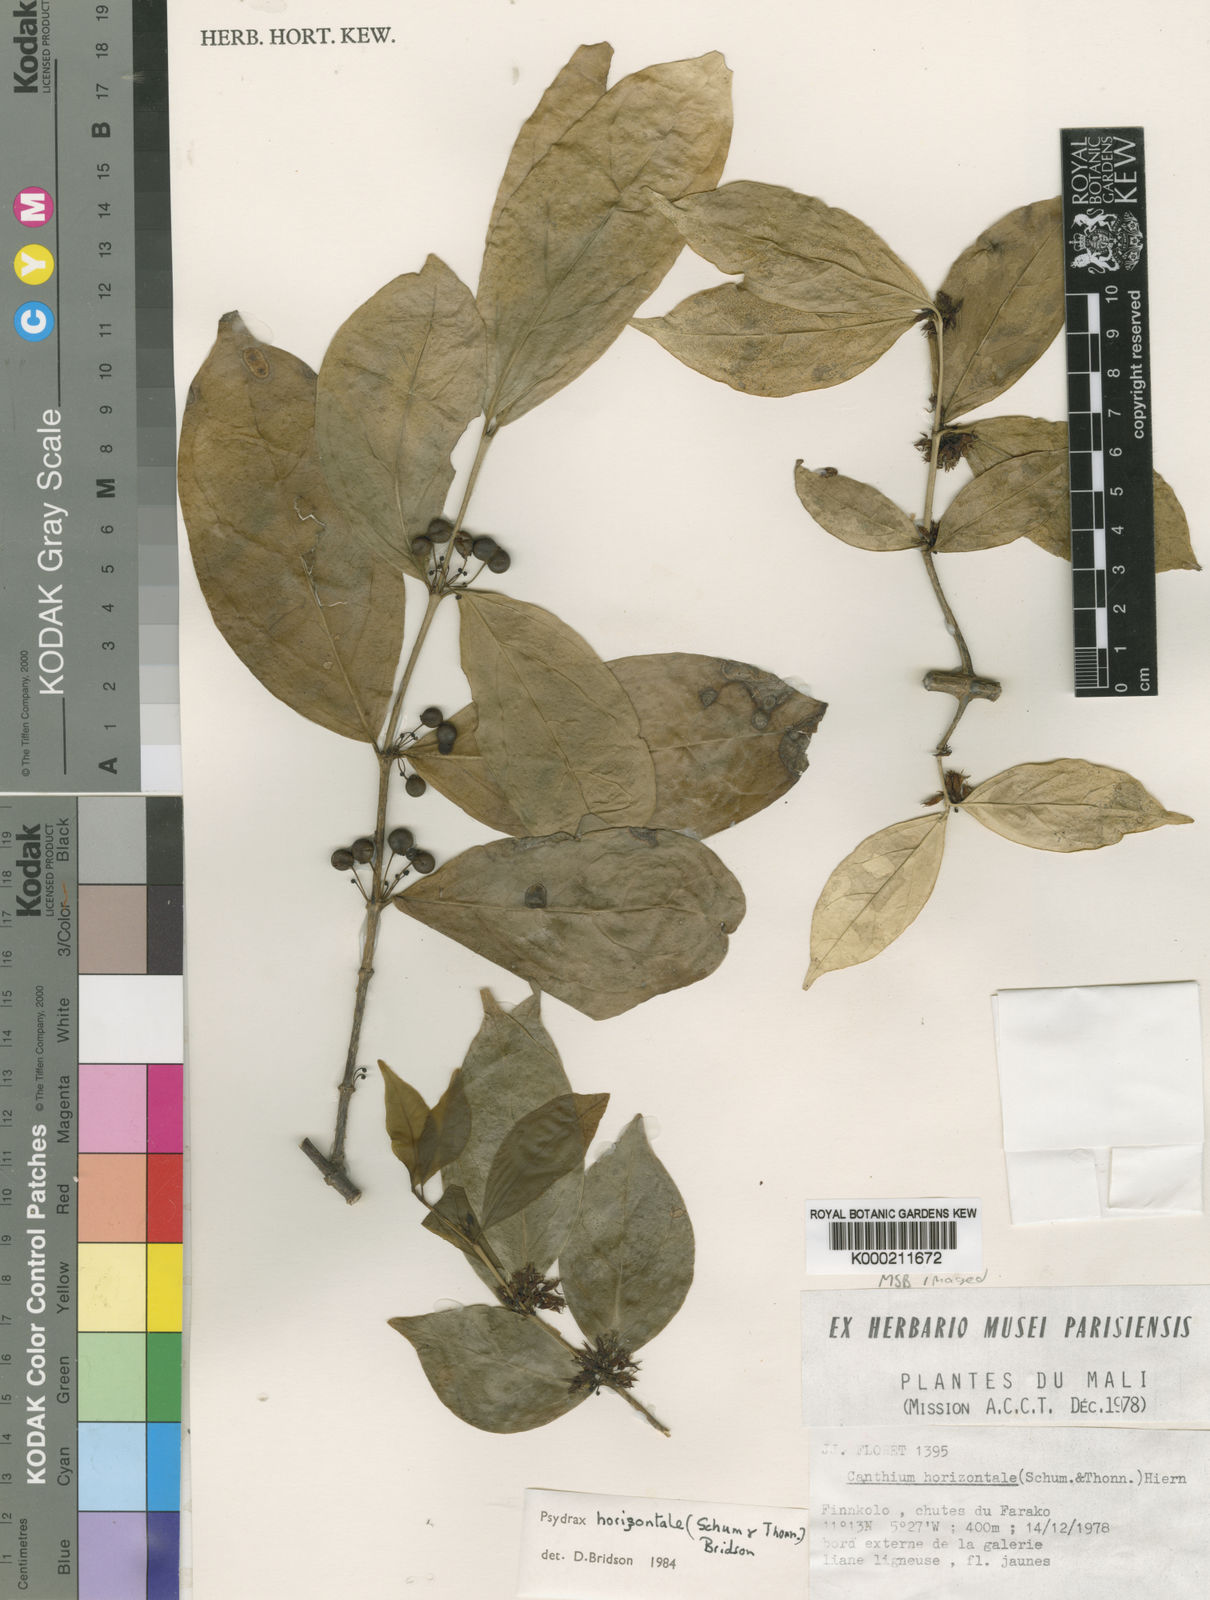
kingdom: Plantae
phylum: Tracheophyta
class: Magnoliopsida
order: Gentianales
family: Rubiaceae
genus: Psydrax
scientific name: Psydrax horizontalis
